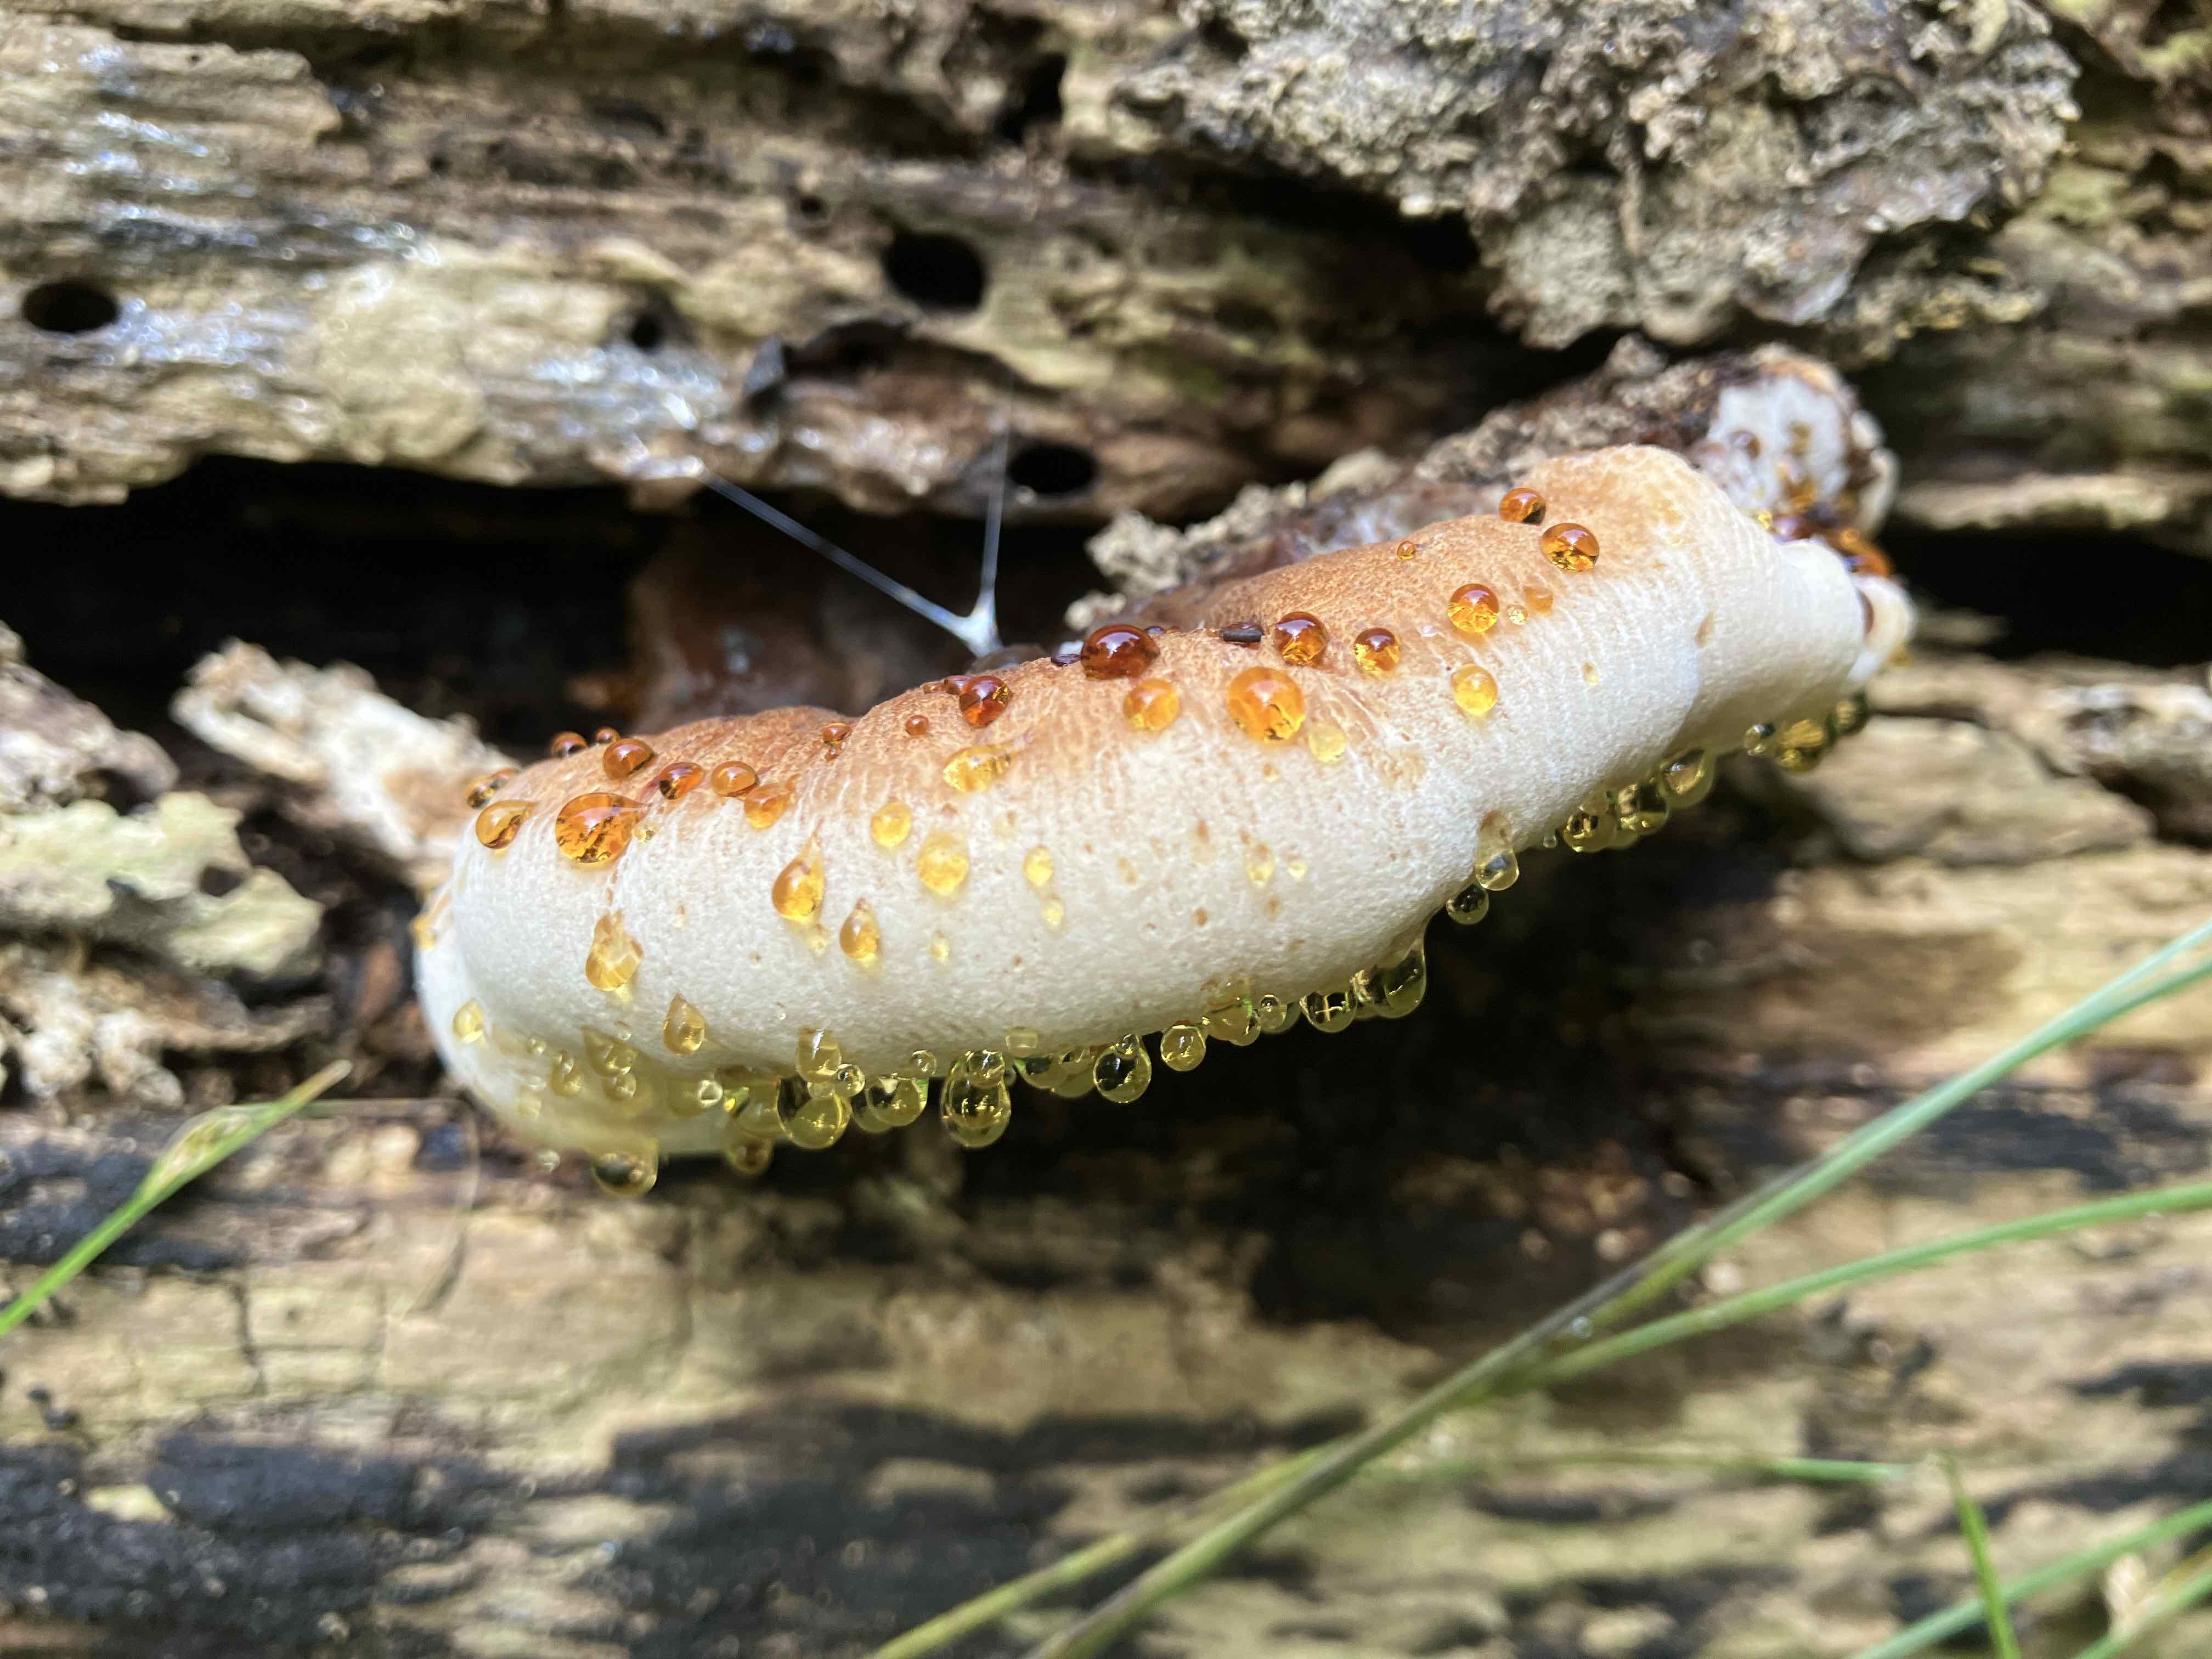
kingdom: Fungi
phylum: Basidiomycota
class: Agaricomycetes
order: Polyporales
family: Ischnodermataceae
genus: Ischnoderma
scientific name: Ischnoderma resinosum
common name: løv-tjæreporesvamp
